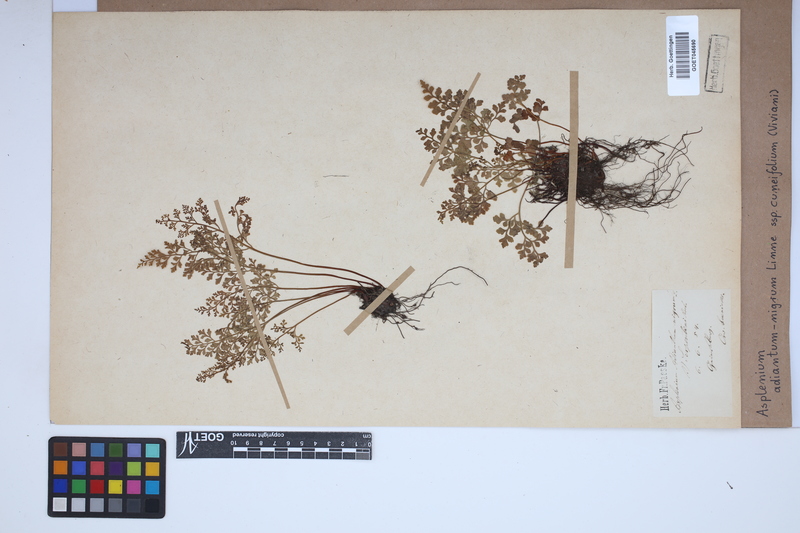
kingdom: Plantae
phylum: Tracheophyta
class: Polypodiopsida
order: Polypodiales
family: Aspleniaceae
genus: Asplenium
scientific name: Asplenium cuneifolium
